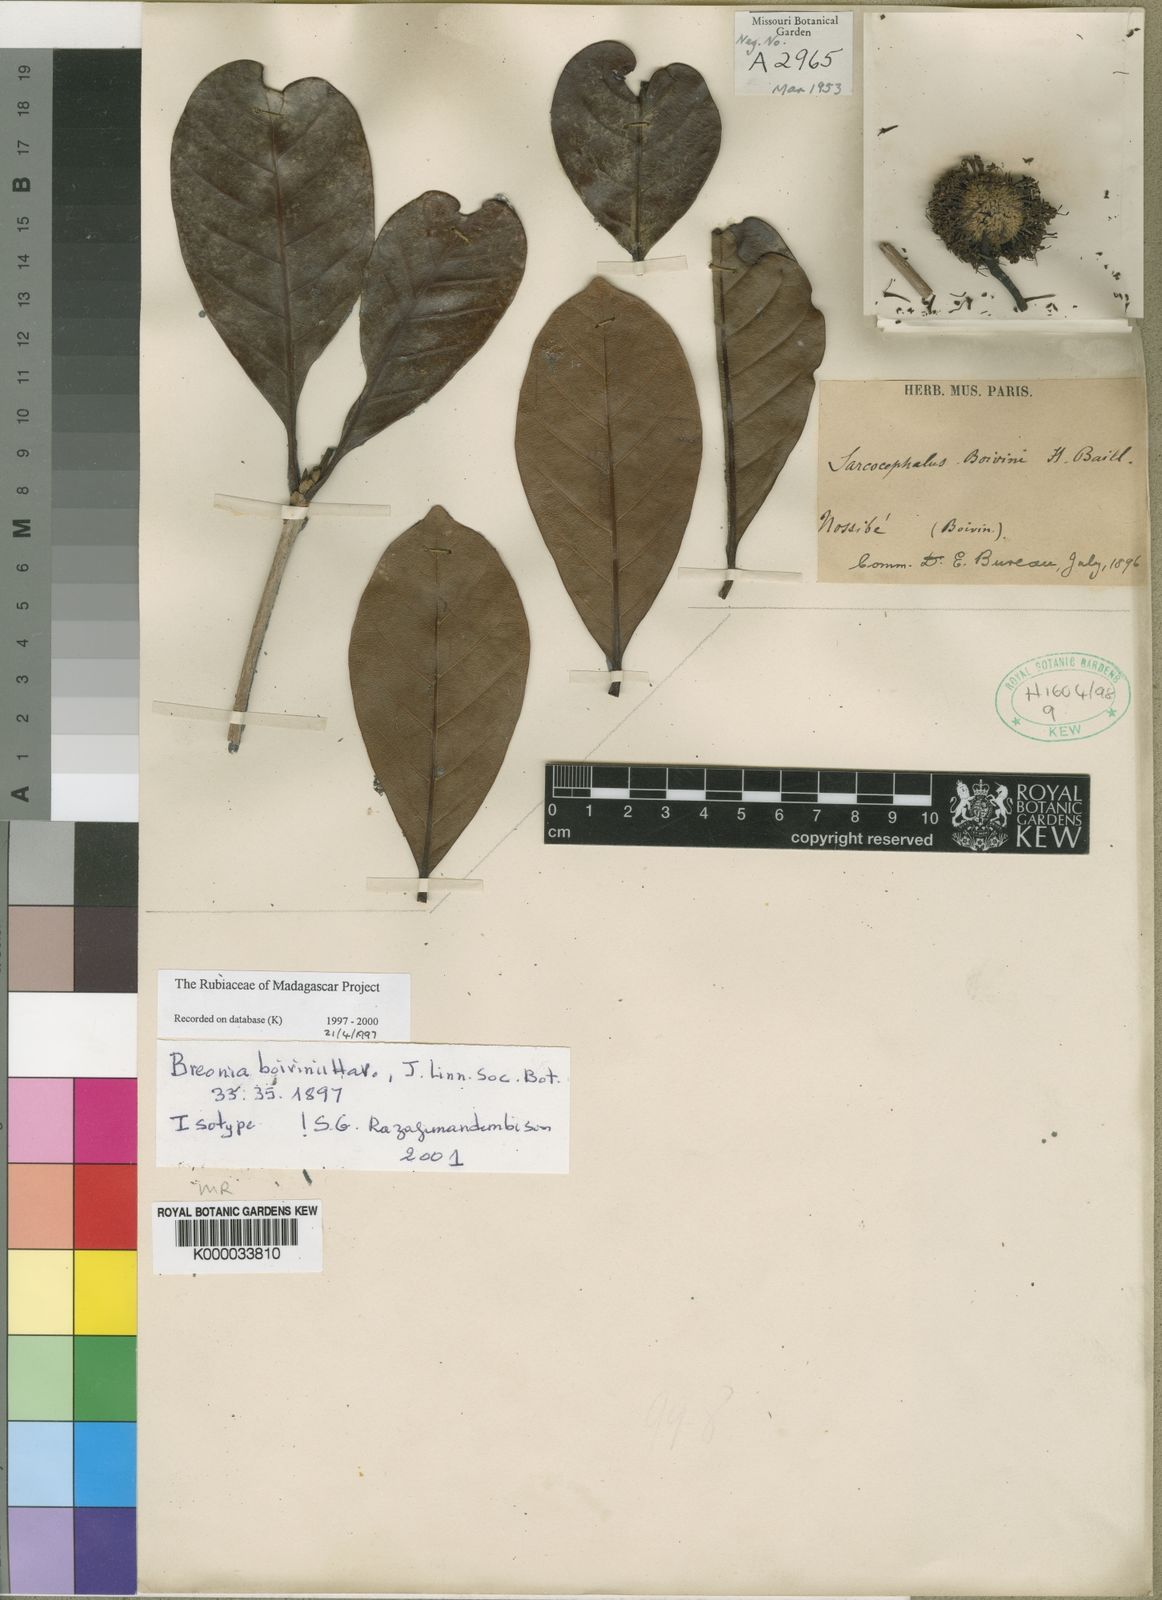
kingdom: Plantae
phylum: Tracheophyta
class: Magnoliopsida
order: Gentianales
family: Rubiaceae
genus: Breonia
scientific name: Breonia boivinii
